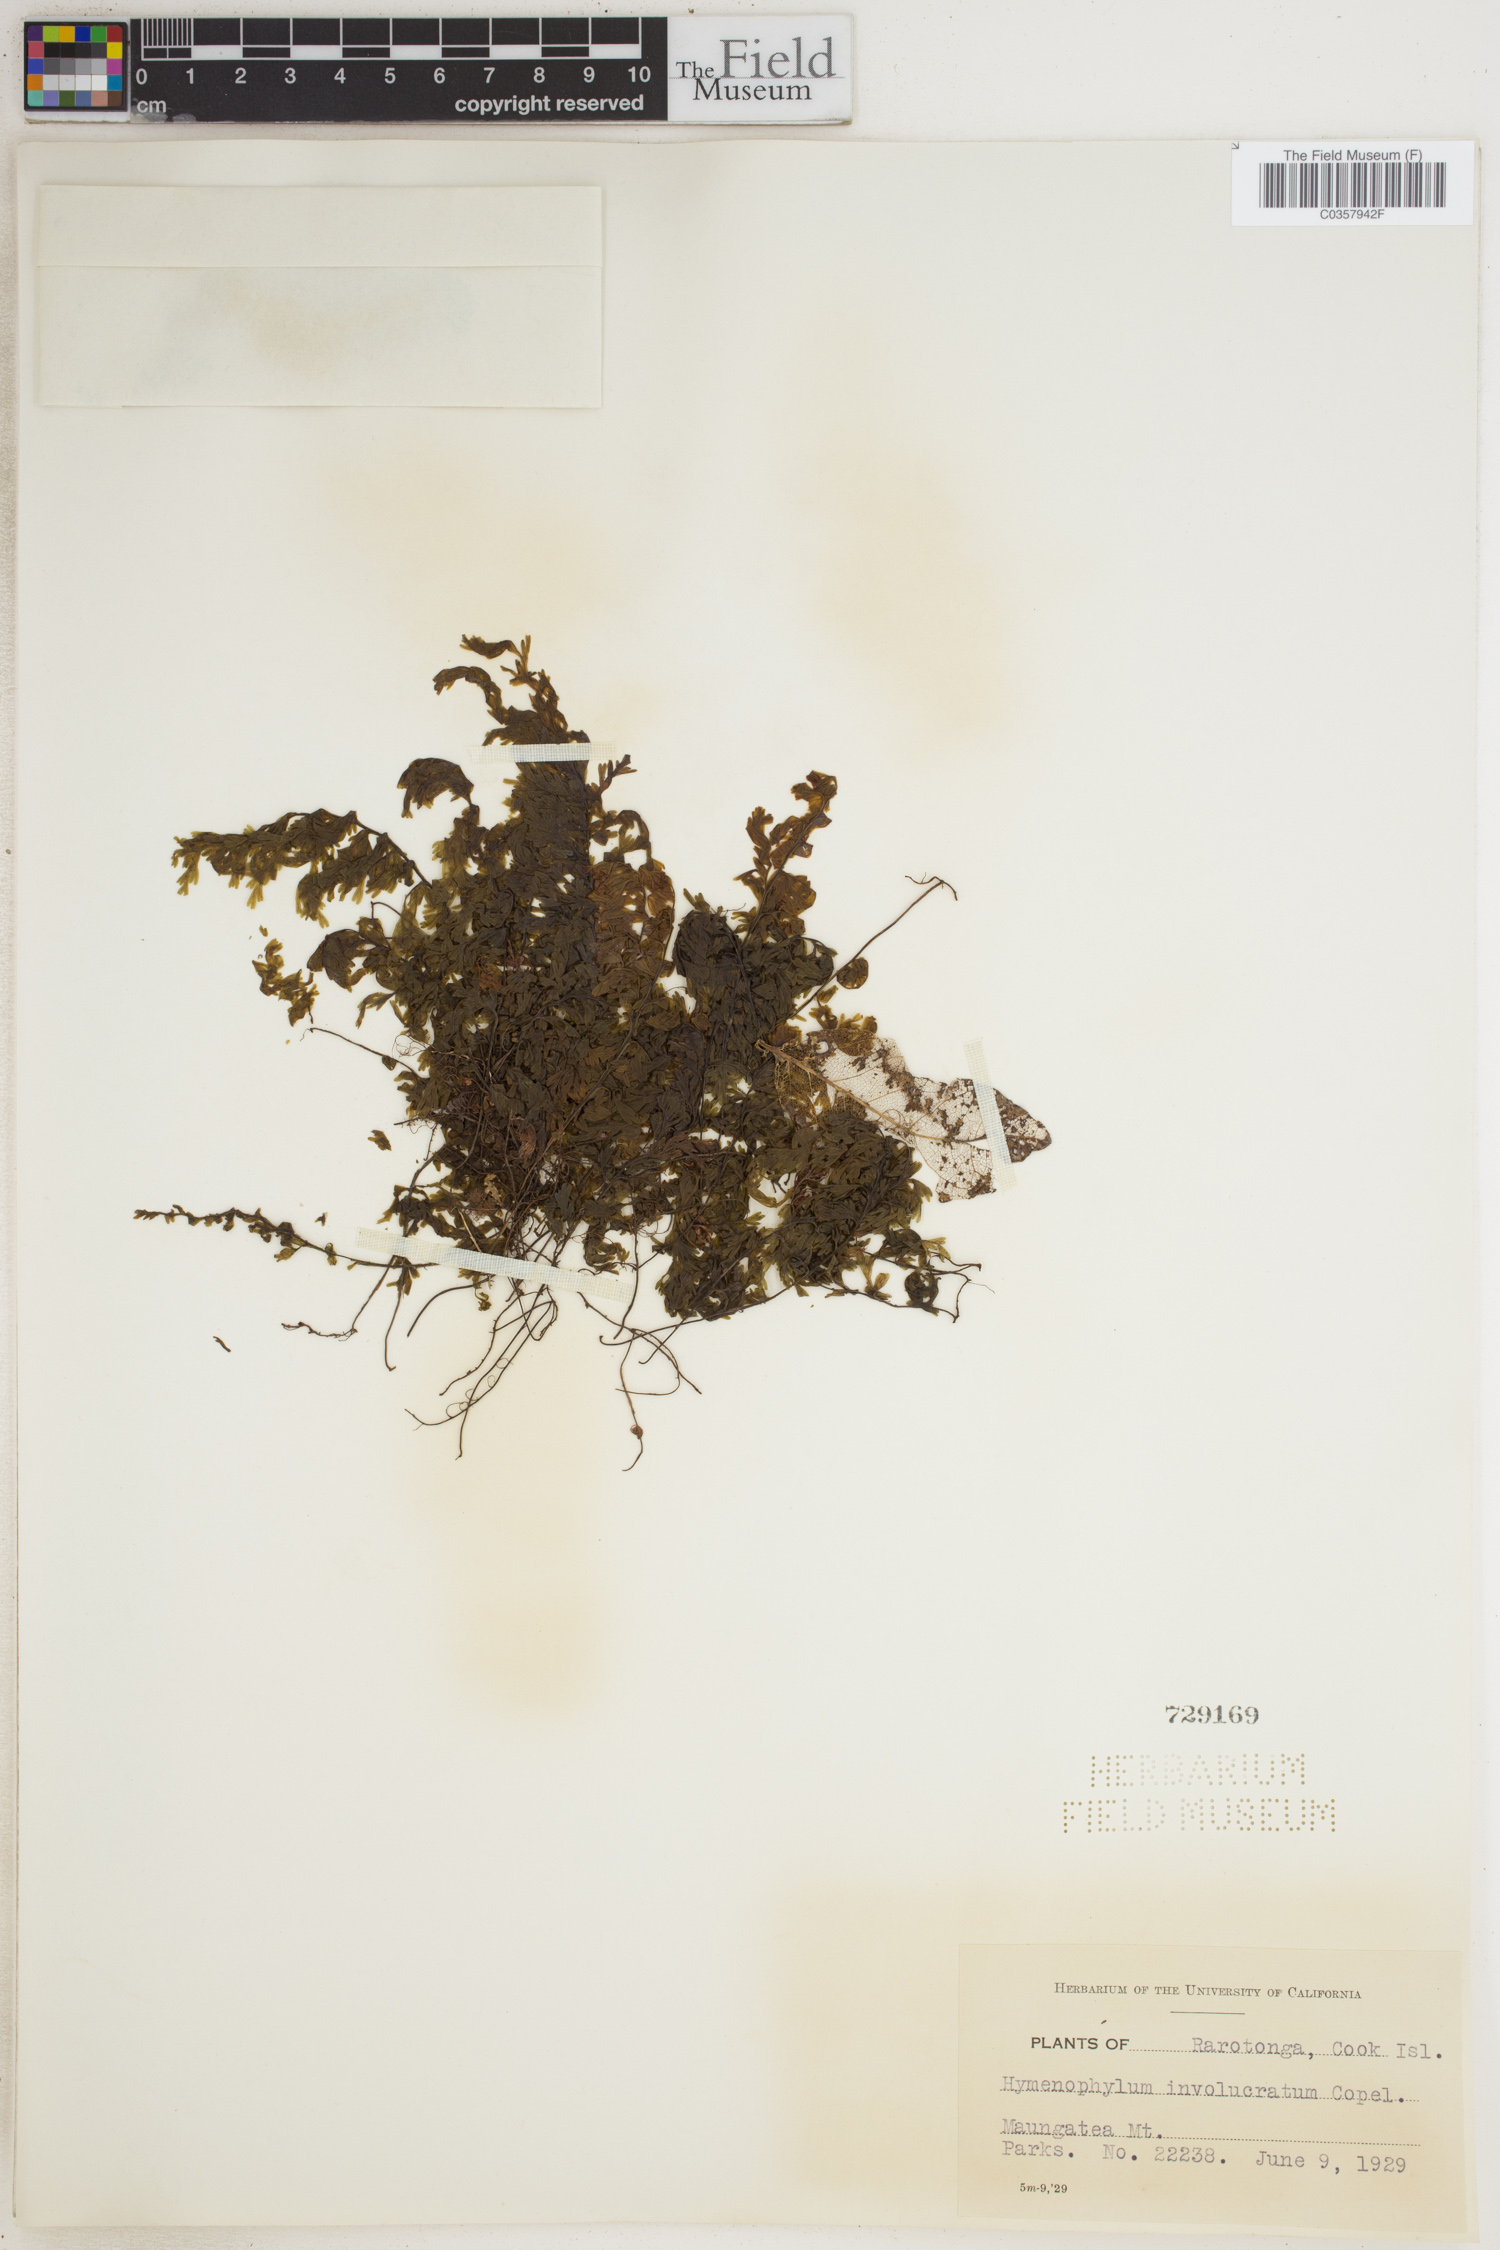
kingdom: Plantae
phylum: Tracheophyta
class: Polypodiopsida
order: Hymenophyllales
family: Hymenophyllaceae
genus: Hymenophyllum
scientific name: Hymenophyllum fumarioides
